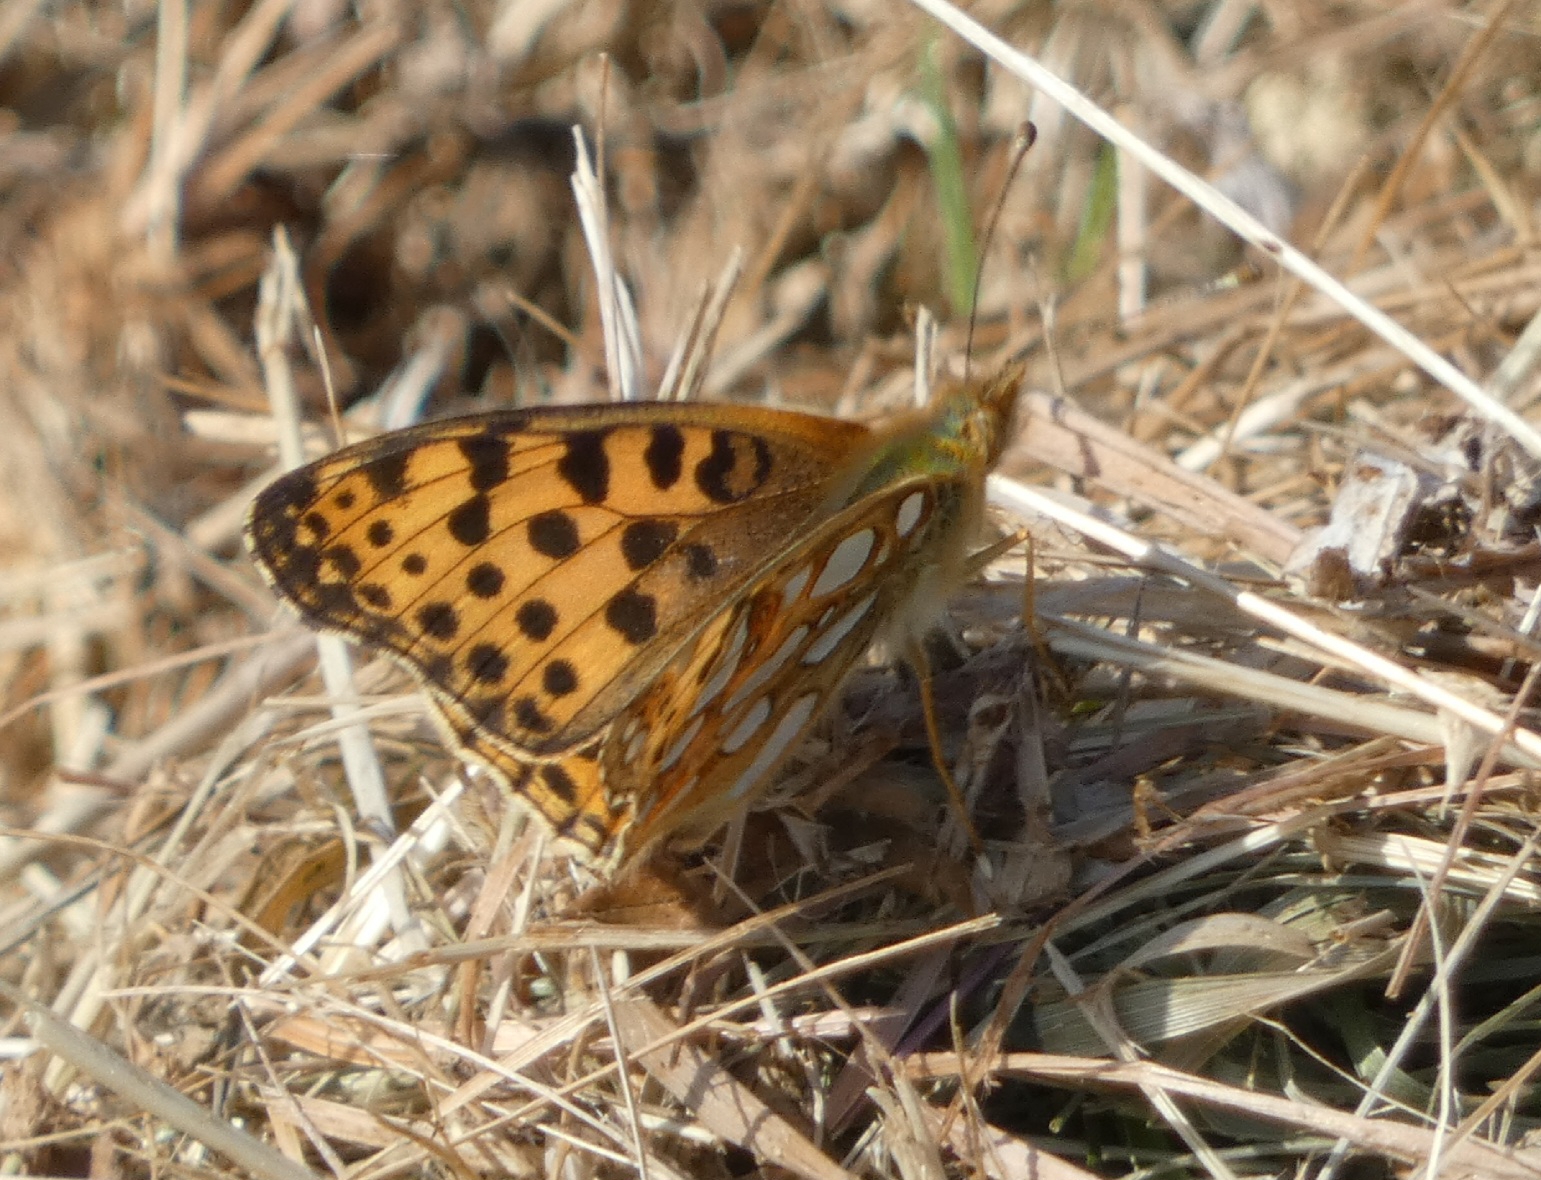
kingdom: Animalia
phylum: Arthropoda
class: Insecta
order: Lepidoptera
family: Nymphalidae
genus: Issoria
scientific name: Issoria lathonia
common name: Storplettet perlemorsommerfugl
